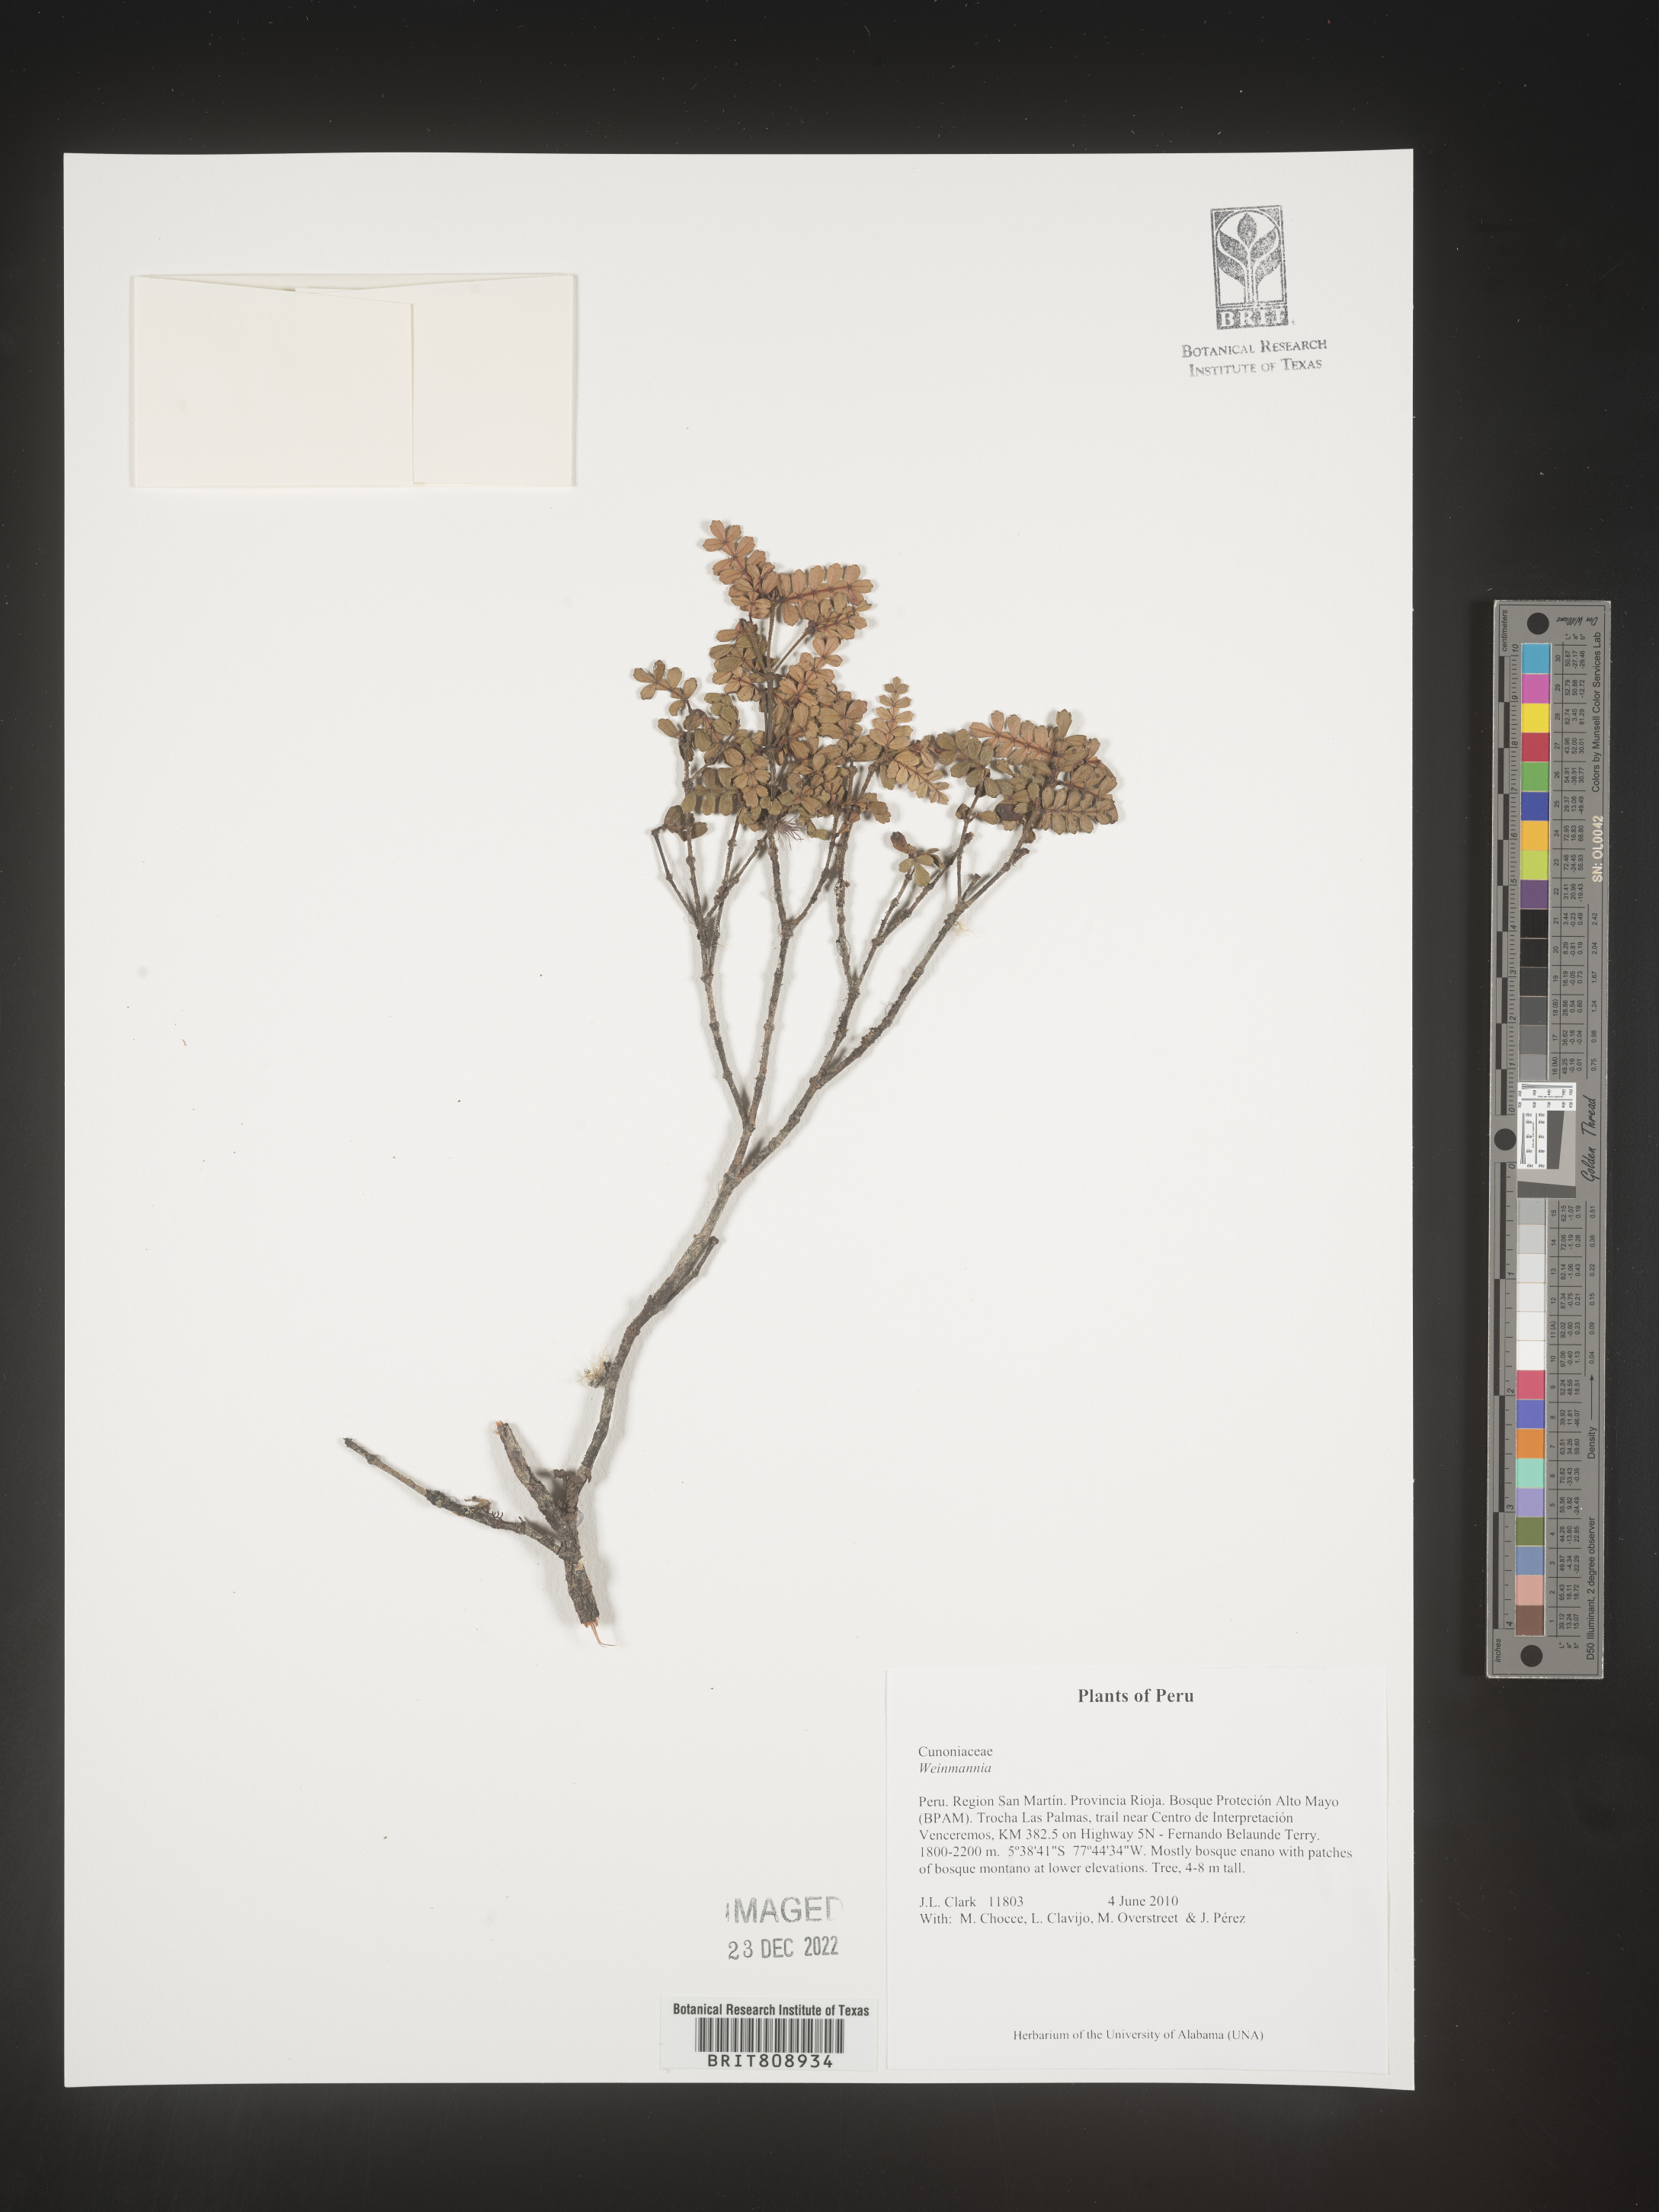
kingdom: Plantae
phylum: Tracheophyta
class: Magnoliopsida
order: Oxalidales
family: Cunoniaceae
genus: Weinmannia
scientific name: Weinmannia
